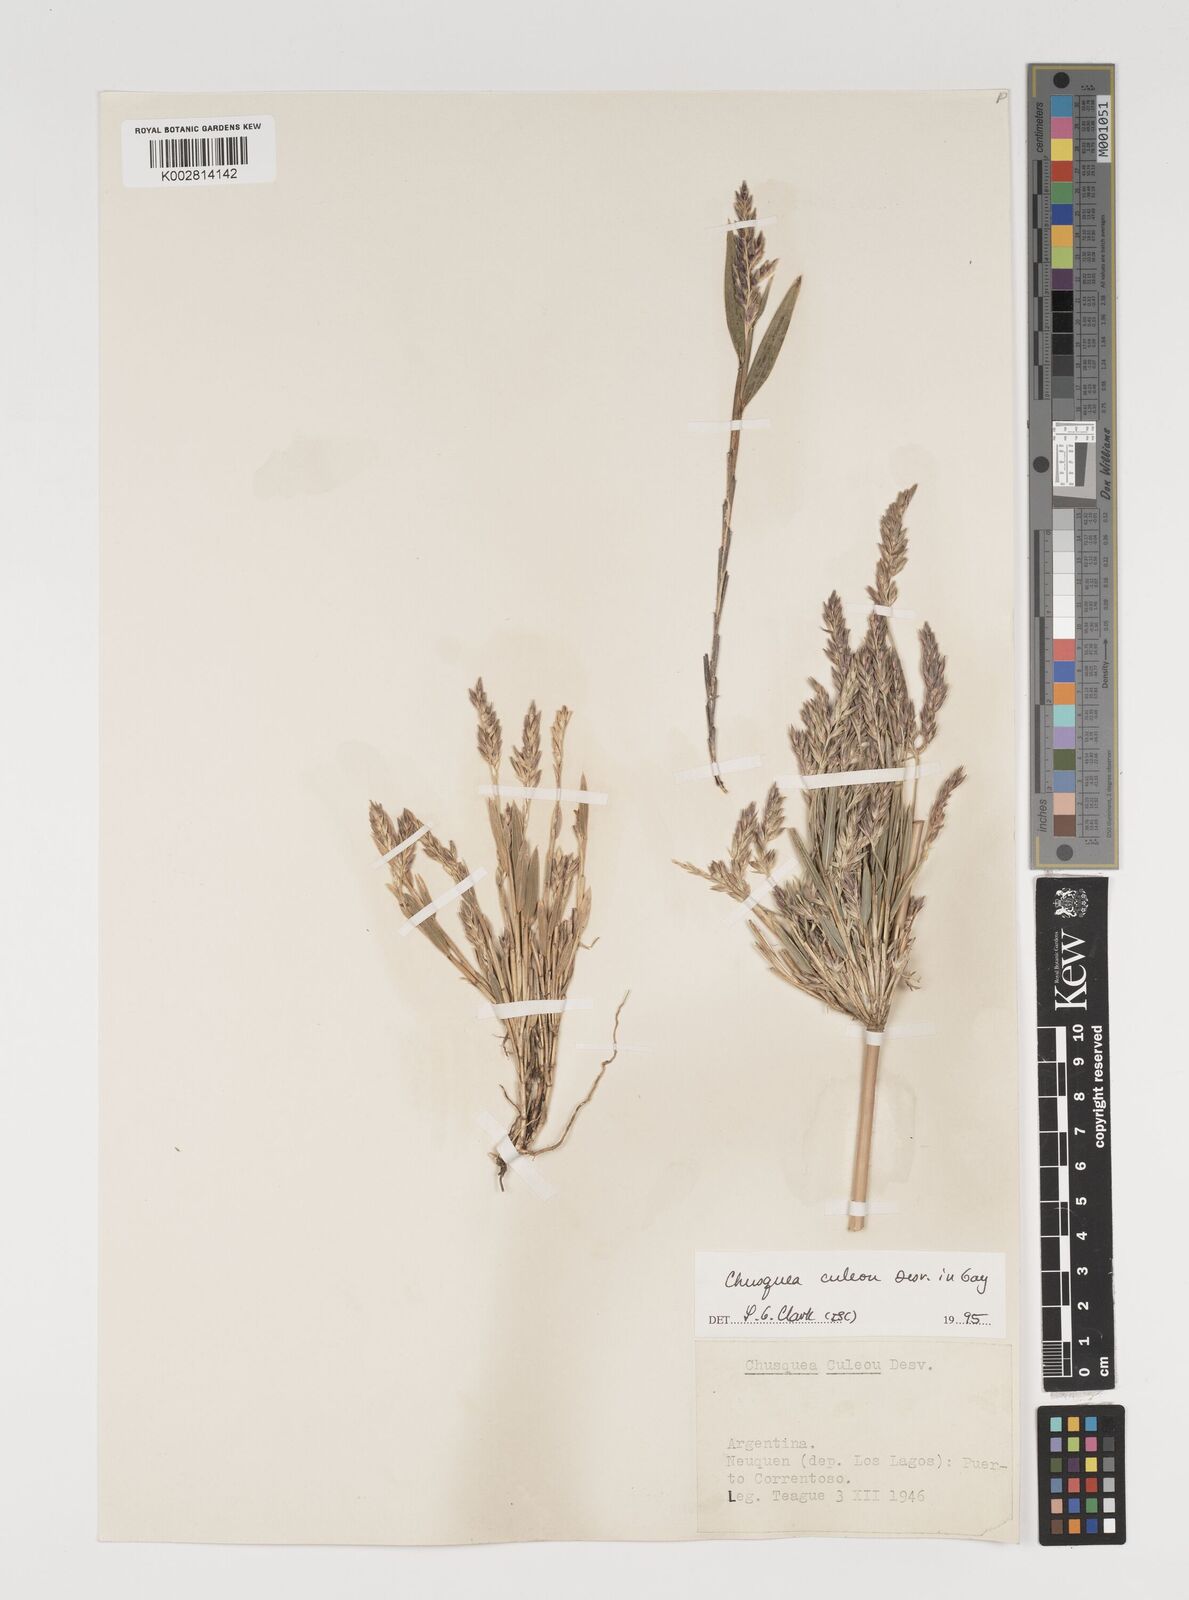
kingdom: Plantae
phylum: Tracheophyta
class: Liliopsida
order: Poales
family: Poaceae
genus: Chusquea
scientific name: Chusquea culeou
